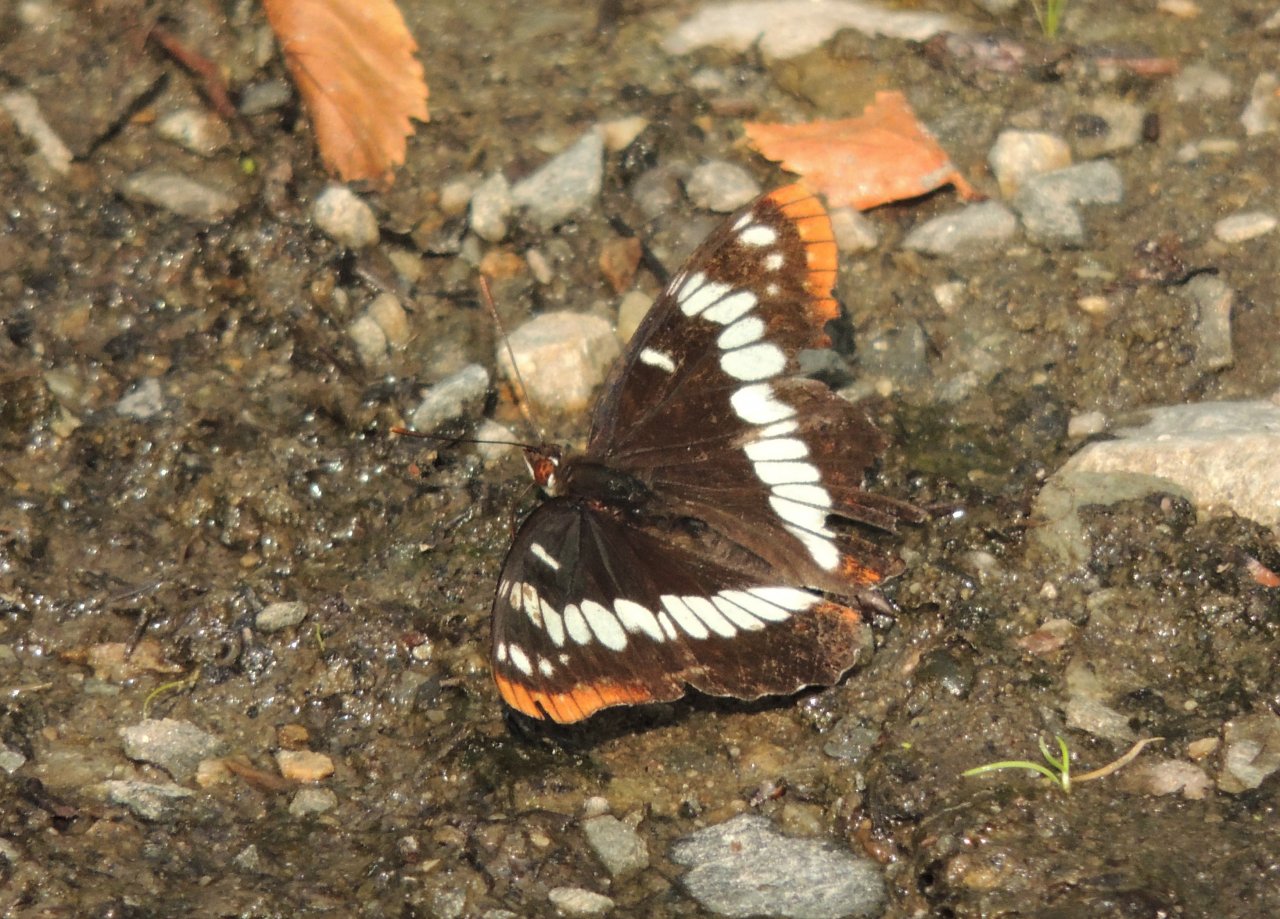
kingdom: Animalia
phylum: Arthropoda
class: Insecta
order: Lepidoptera
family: Nymphalidae
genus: Limenitis
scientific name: Limenitis lorquini
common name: Lorquin's Admiral
